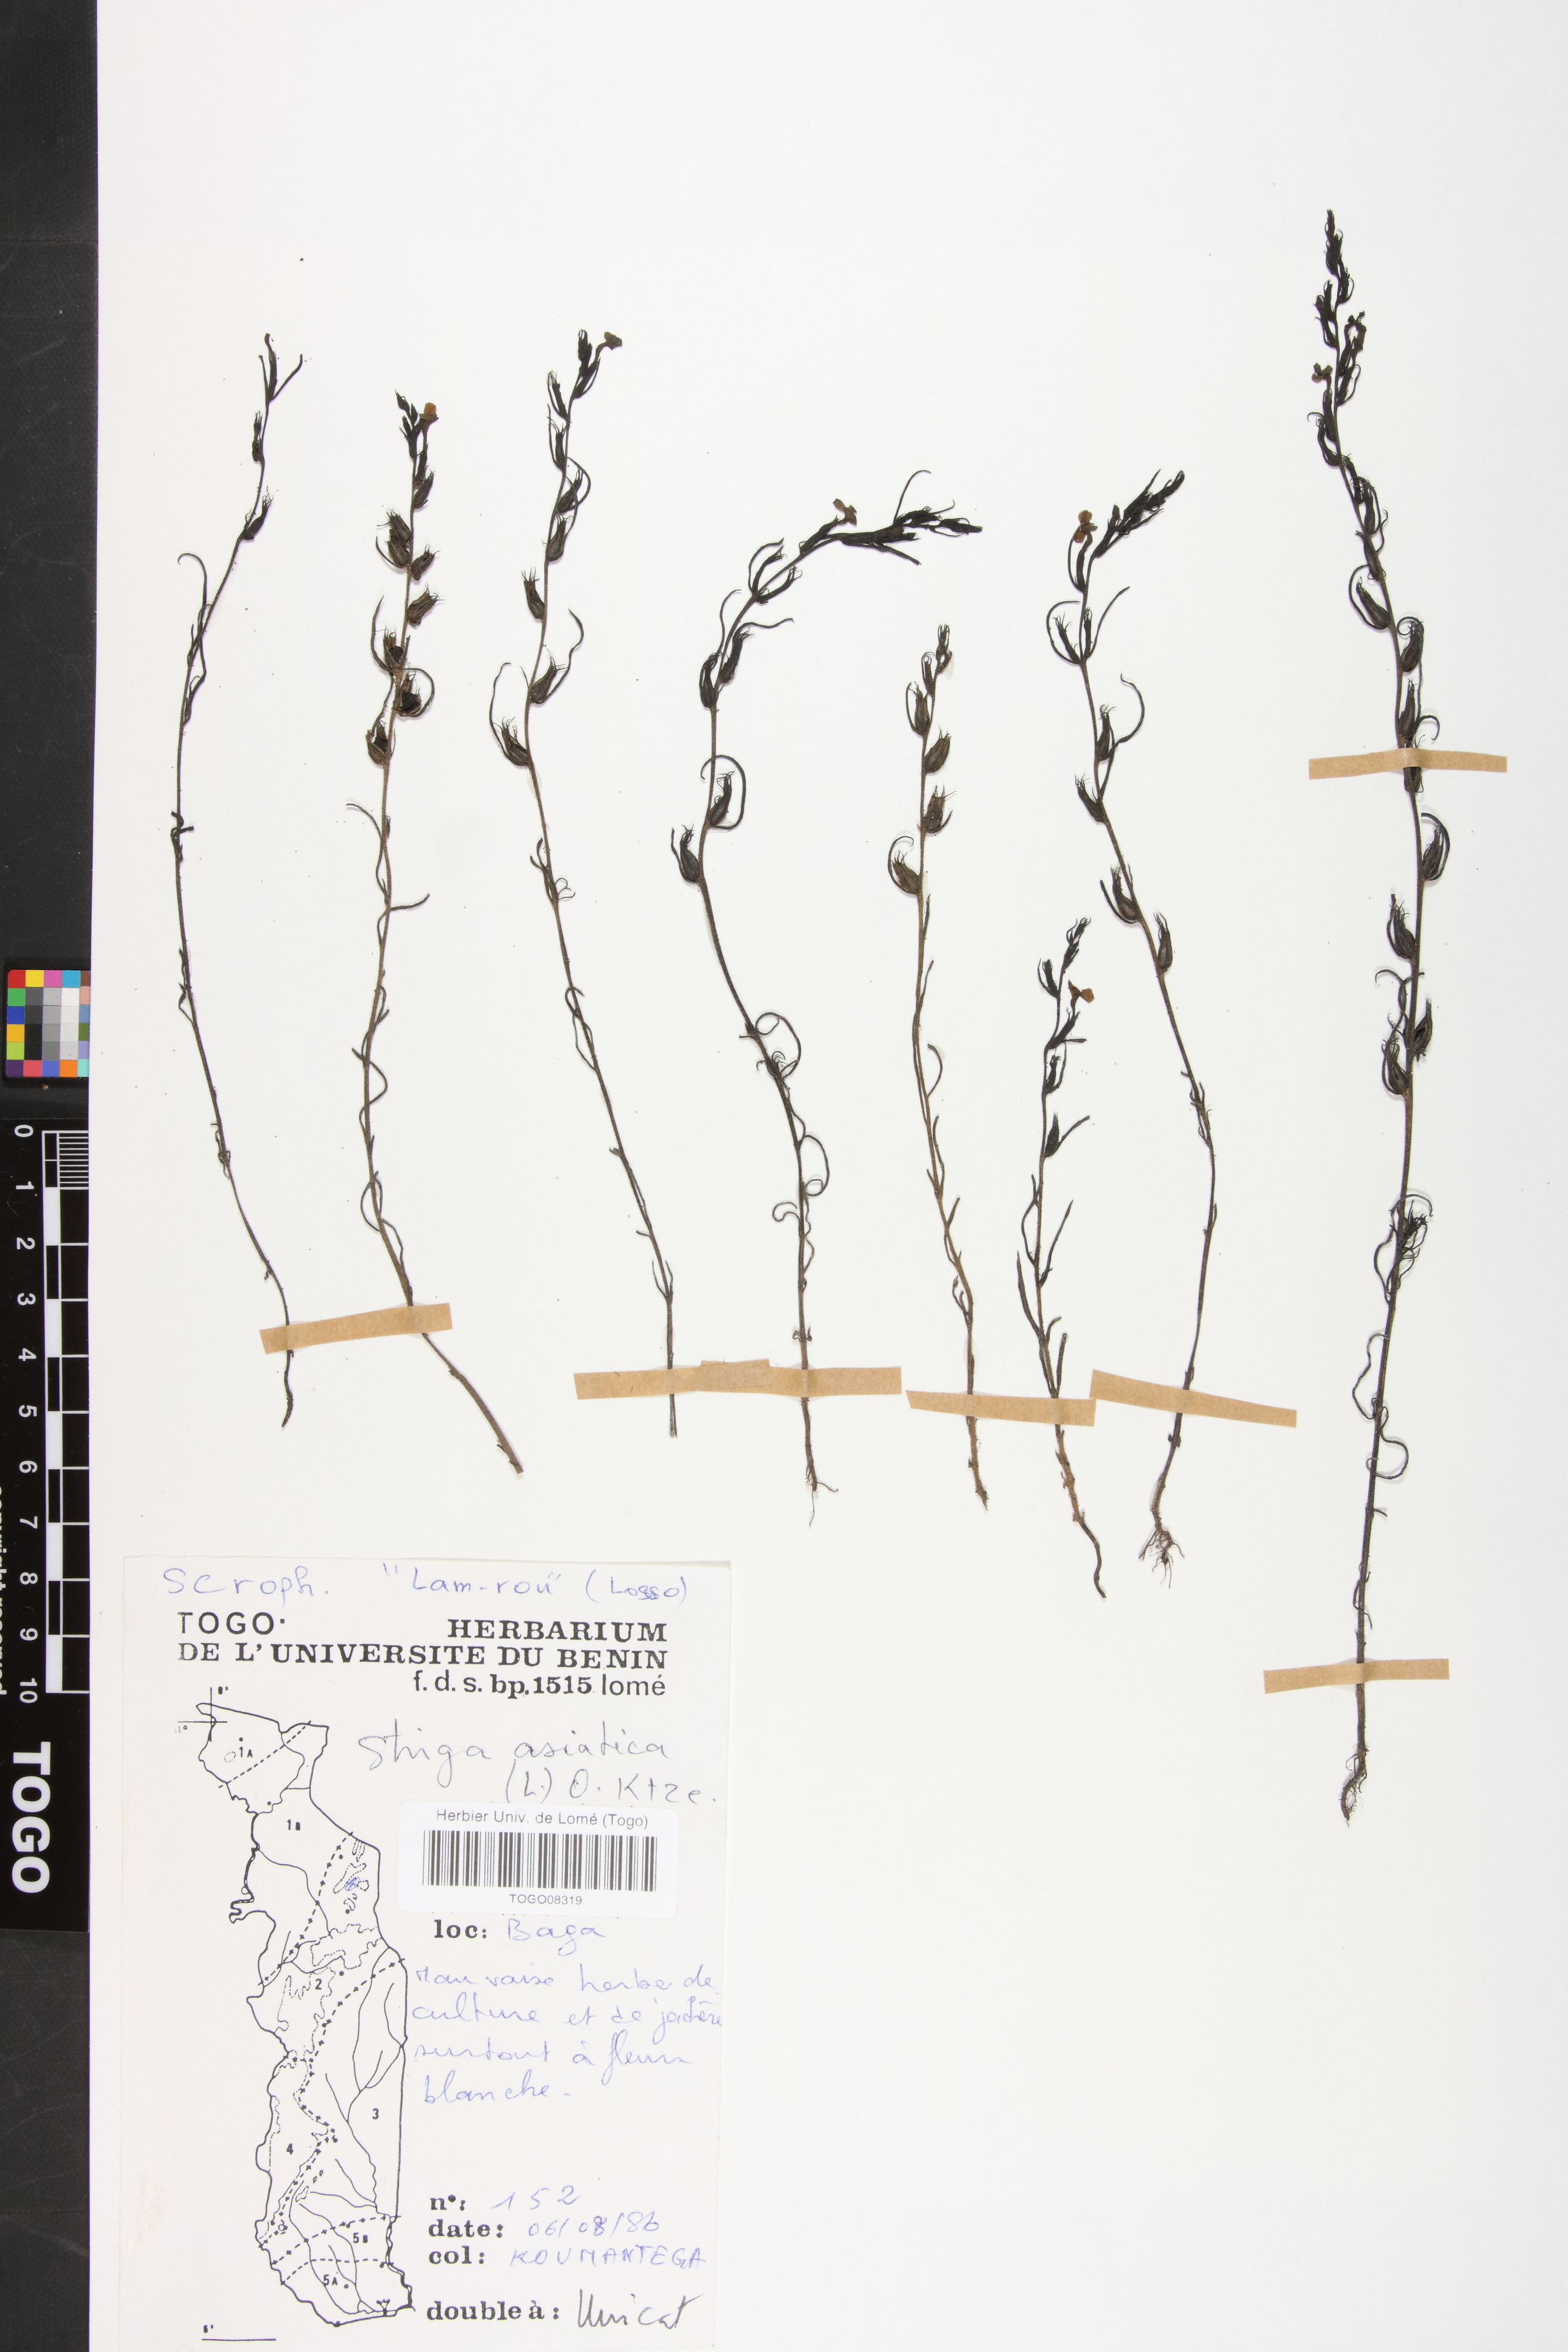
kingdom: Plantae
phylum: Tracheophyta
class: Magnoliopsida
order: Lamiales
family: Orobanchaceae
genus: Striga
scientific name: Striga asiatica
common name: Asiatic witchweed
